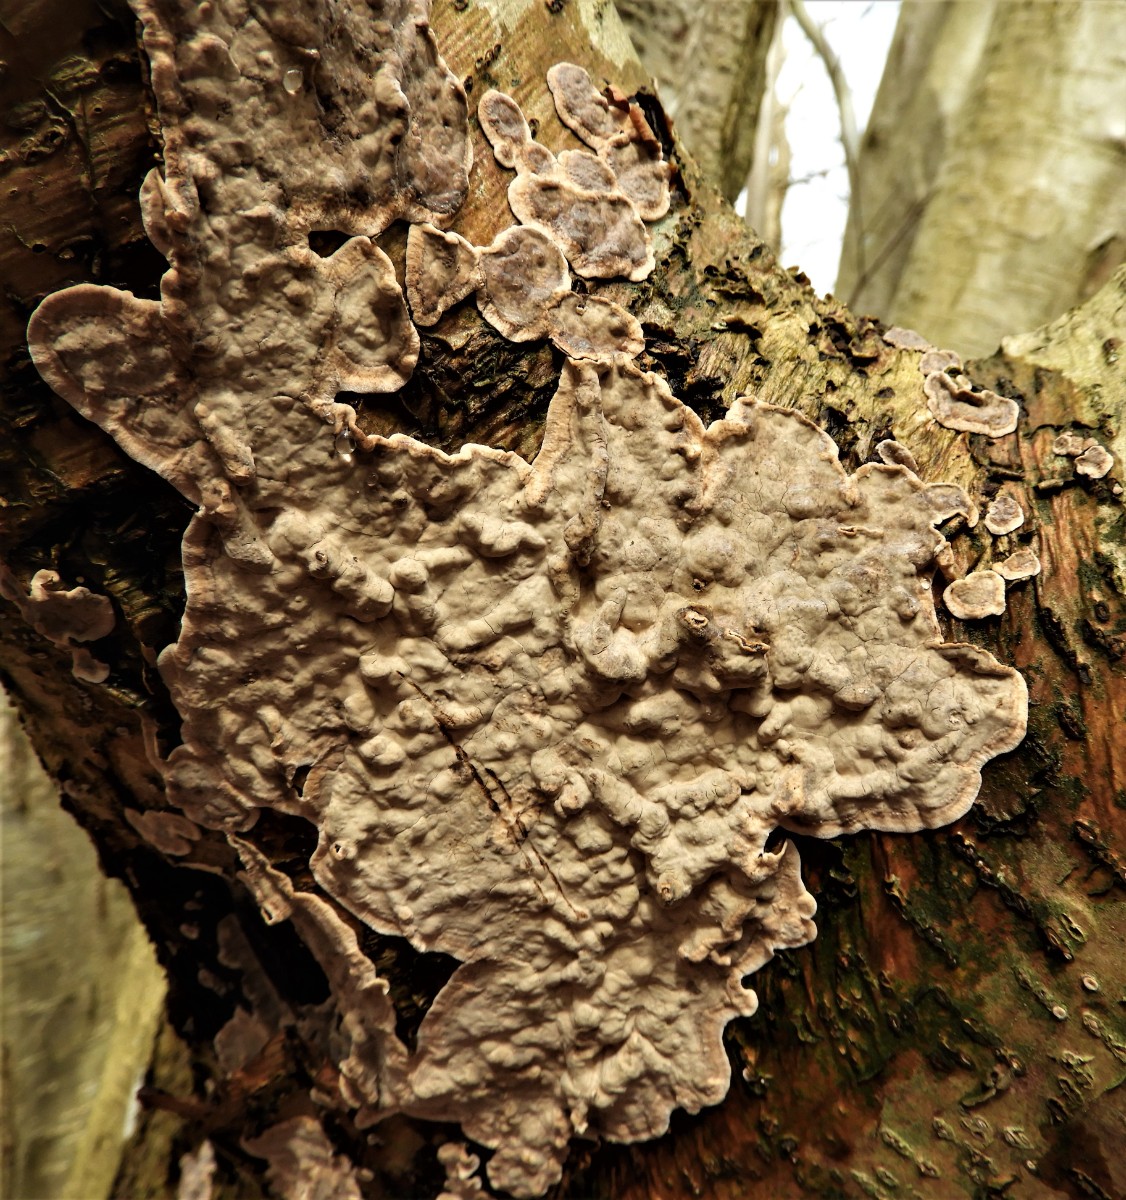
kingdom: Fungi
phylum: Basidiomycota
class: Agaricomycetes
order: Agaricales
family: Physalacriaceae
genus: Cylindrobasidium
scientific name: Cylindrobasidium evolvens
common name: sprækkehinde
